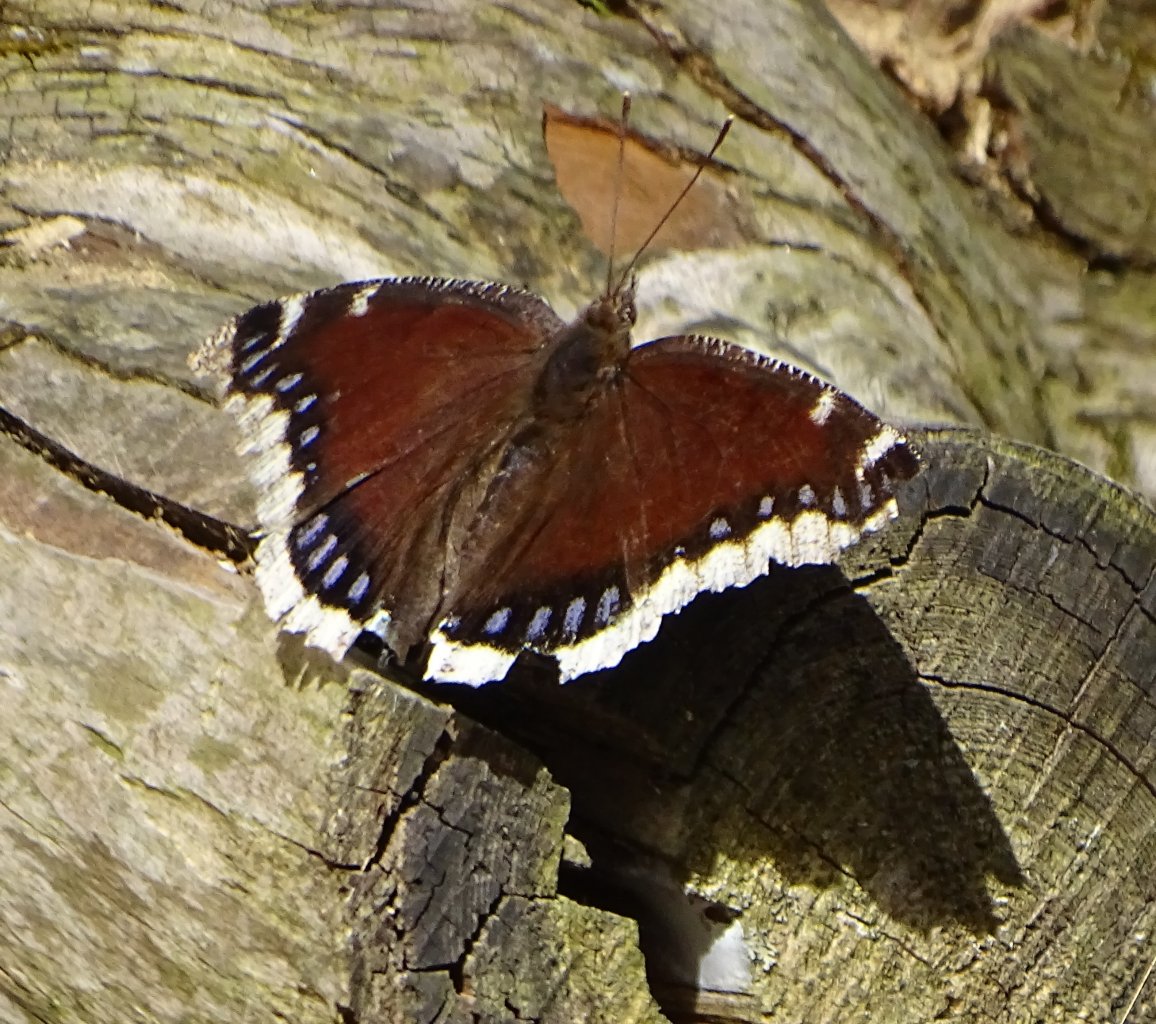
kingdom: Animalia
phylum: Arthropoda
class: Insecta
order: Lepidoptera
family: Nymphalidae
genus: Nymphalis
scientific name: Nymphalis antiopa
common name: Mourning Cloak
